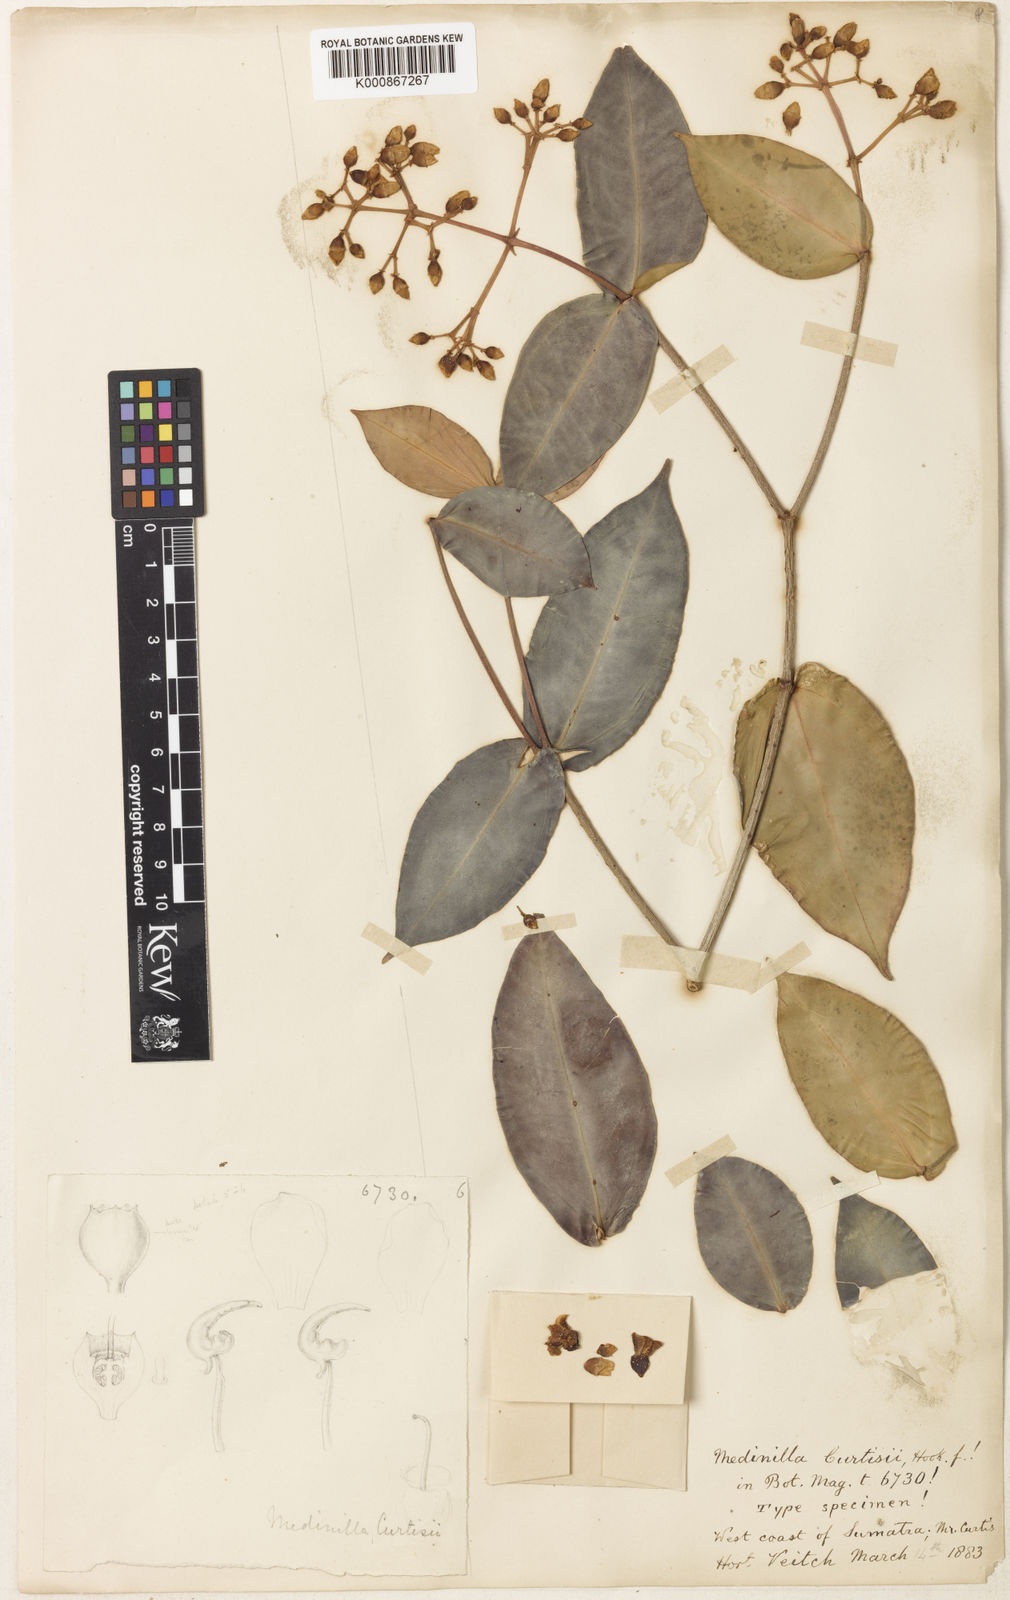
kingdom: Plantae
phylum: Tracheophyta
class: Magnoliopsida
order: Myrtales
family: Melastomataceae
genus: Medinilla
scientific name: Medinilla curtisii
